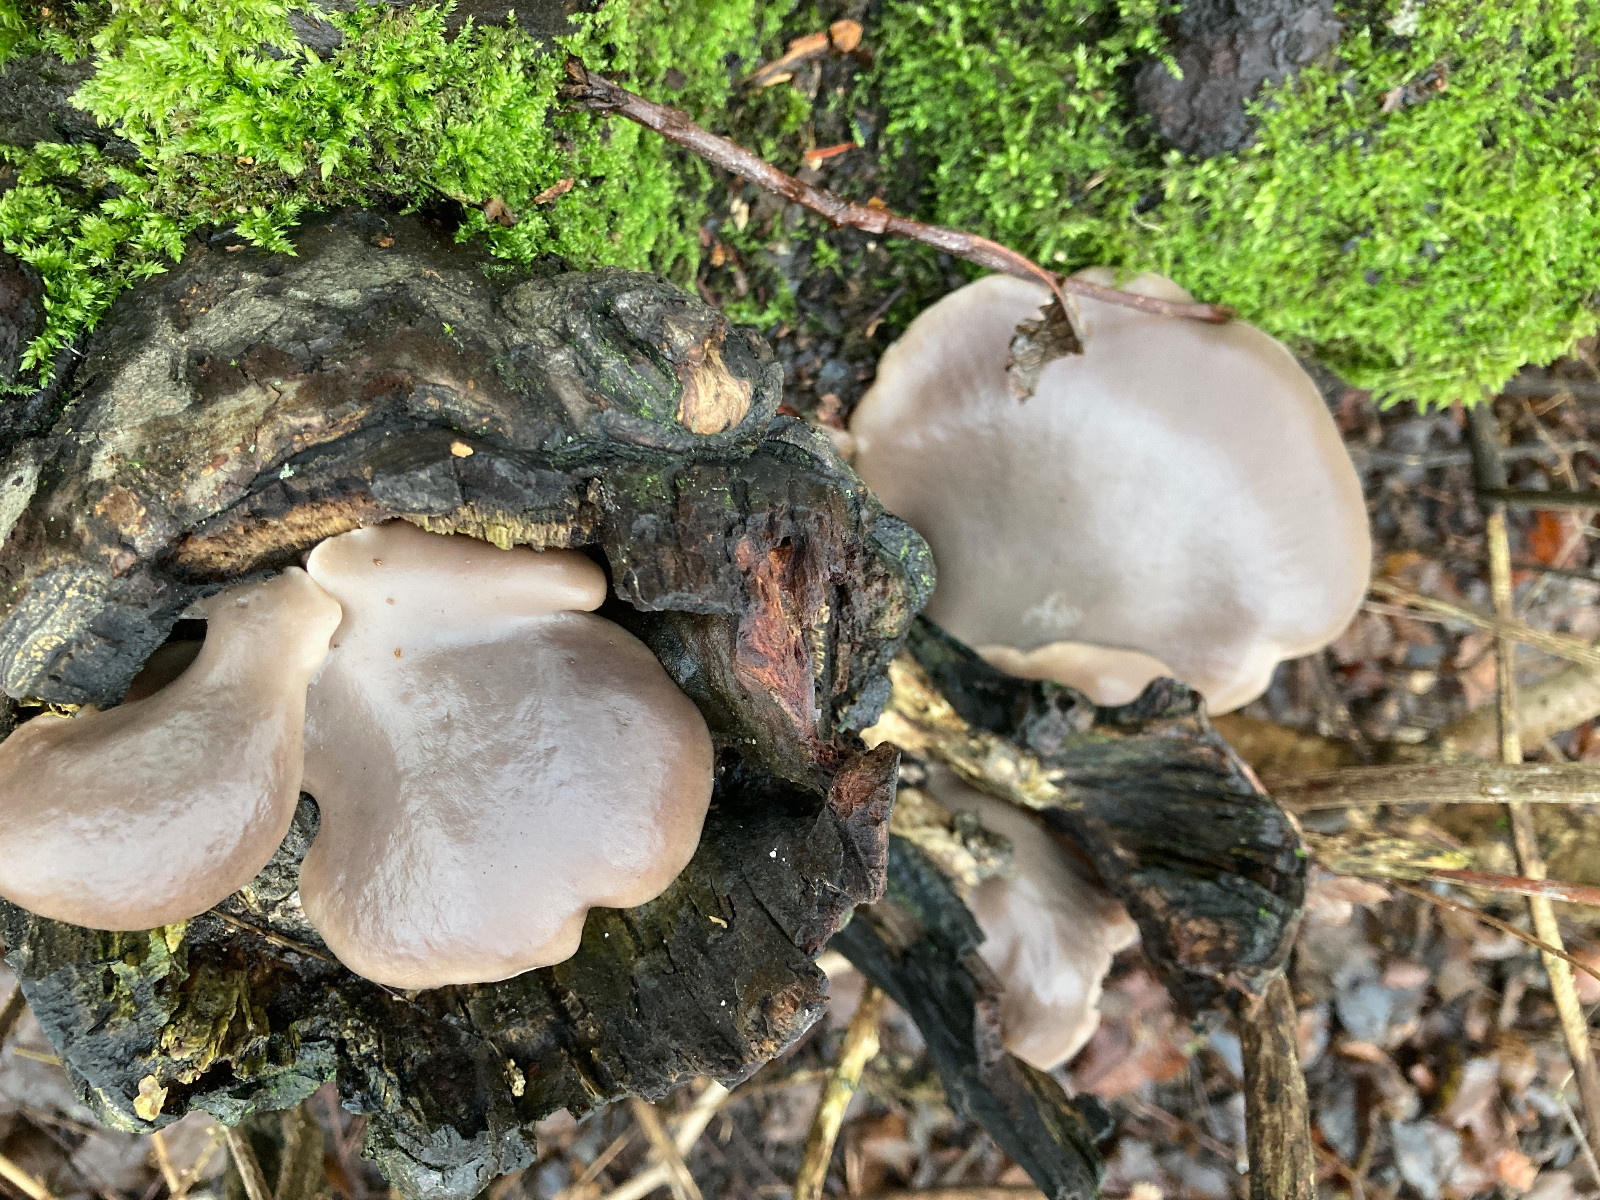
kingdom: Fungi
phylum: Basidiomycota
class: Agaricomycetes
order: Agaricales
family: Pleurotaceae
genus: Pleurotus
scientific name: Pleurotus ostreatus
